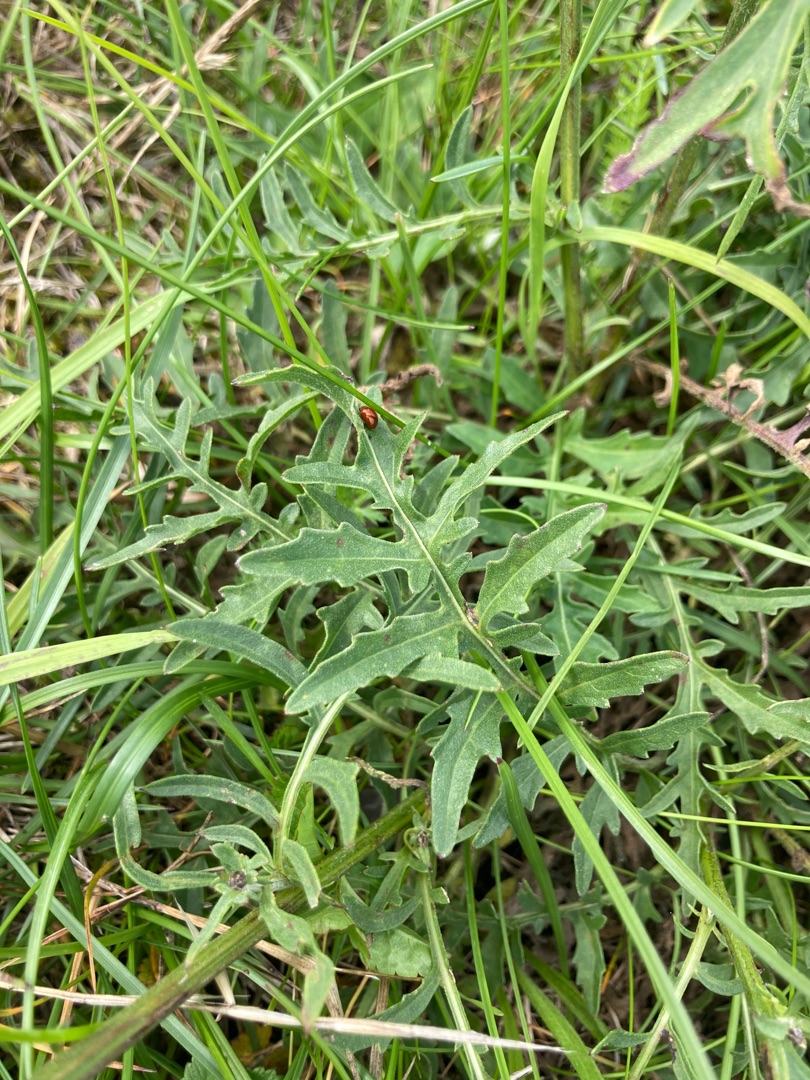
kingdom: Plantae
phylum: Tracheophyta
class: Magnoliopsida
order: Asterales
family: Asteraceae
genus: Centaurea
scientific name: Centaurea scabiosa
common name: Stor knopurt
